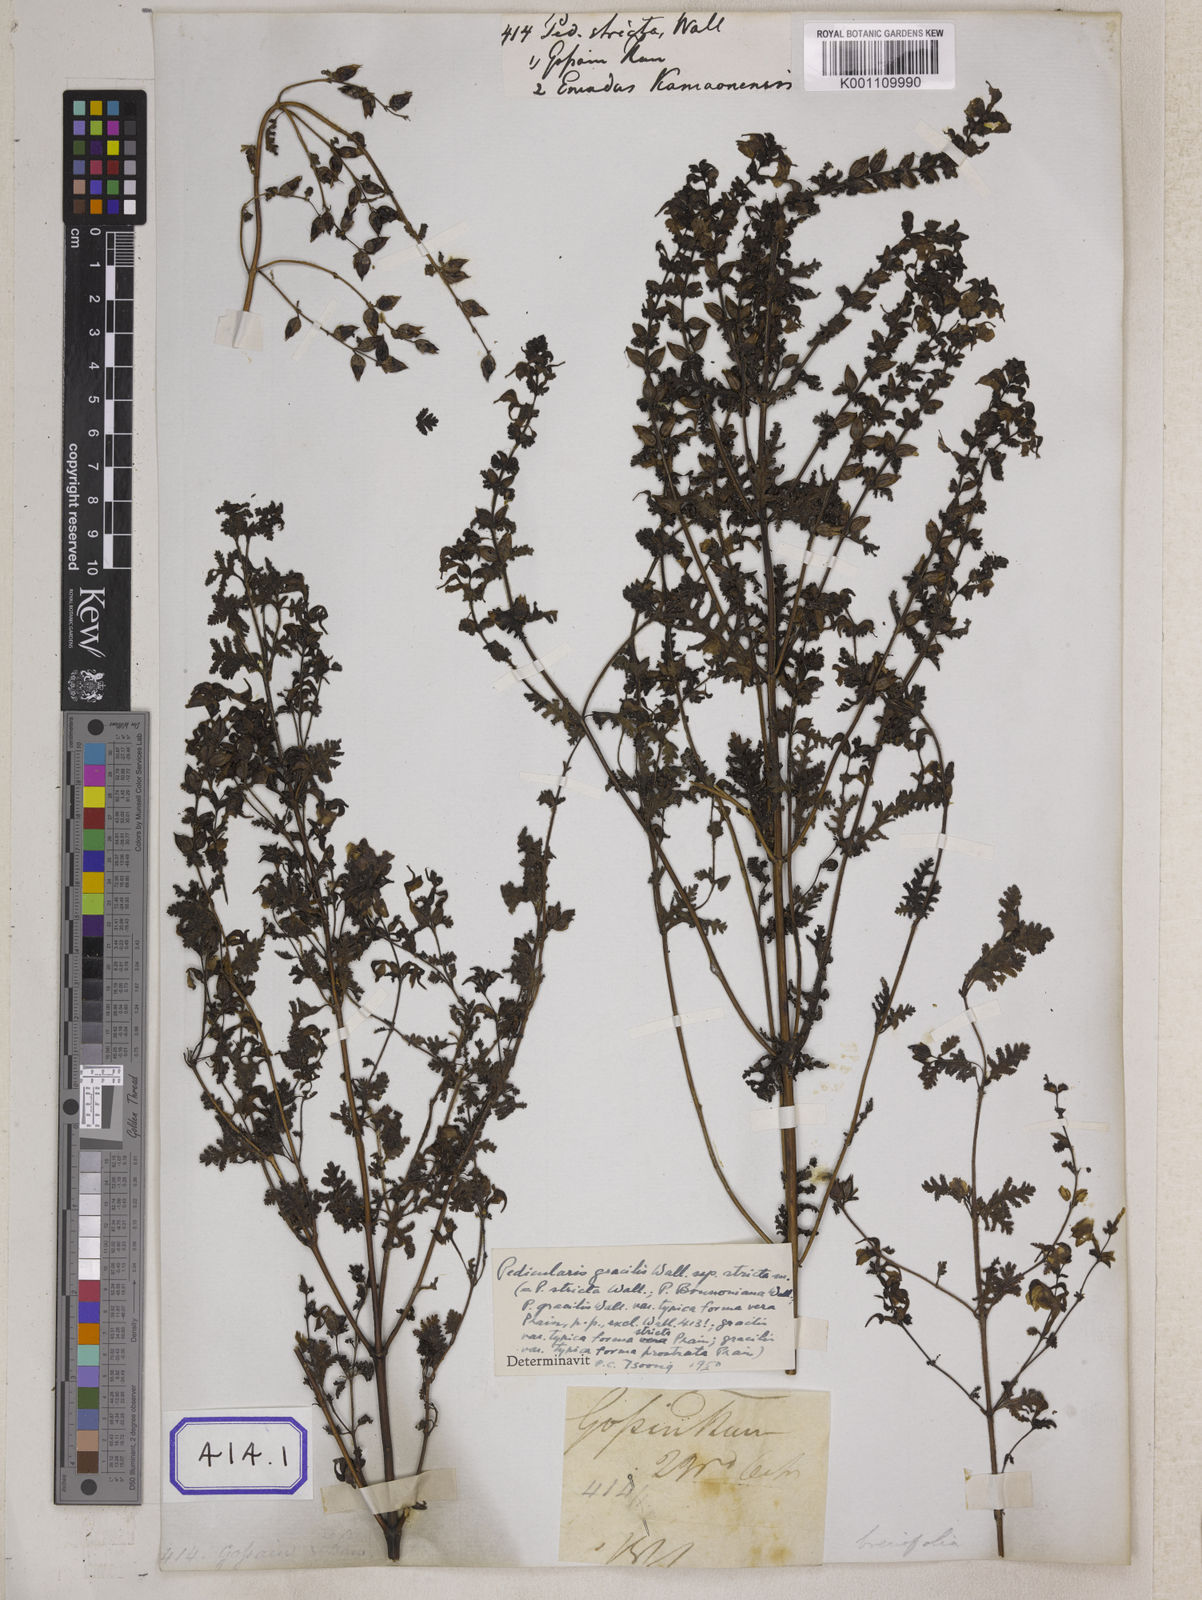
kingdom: Plantae
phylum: Tracheophyta
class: Magnoliopsida
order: Lamiales
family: Orobanchaceae
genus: Pedicularis
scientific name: Pedicularis gracilis
